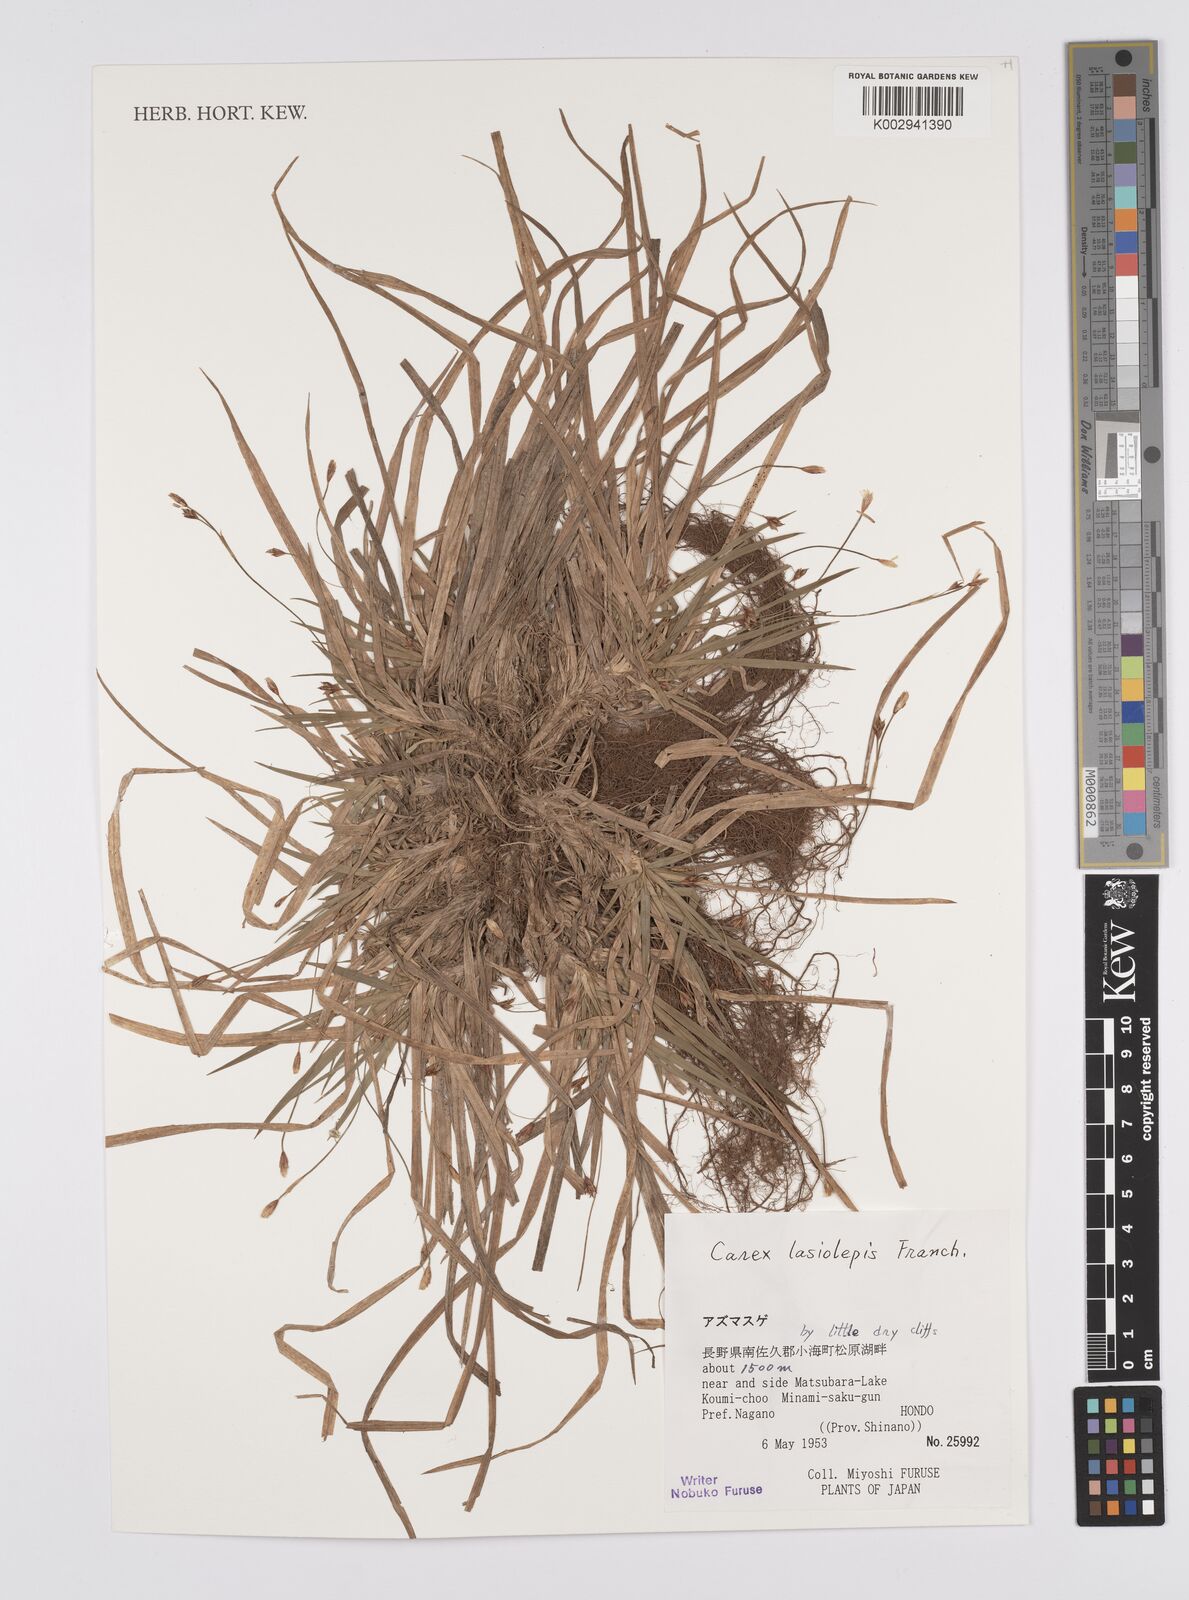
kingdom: Plantae
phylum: Tracheophyta
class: Liliopsida
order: Poales
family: Cyperaceae
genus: Carex
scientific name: Carex lasiolepis
